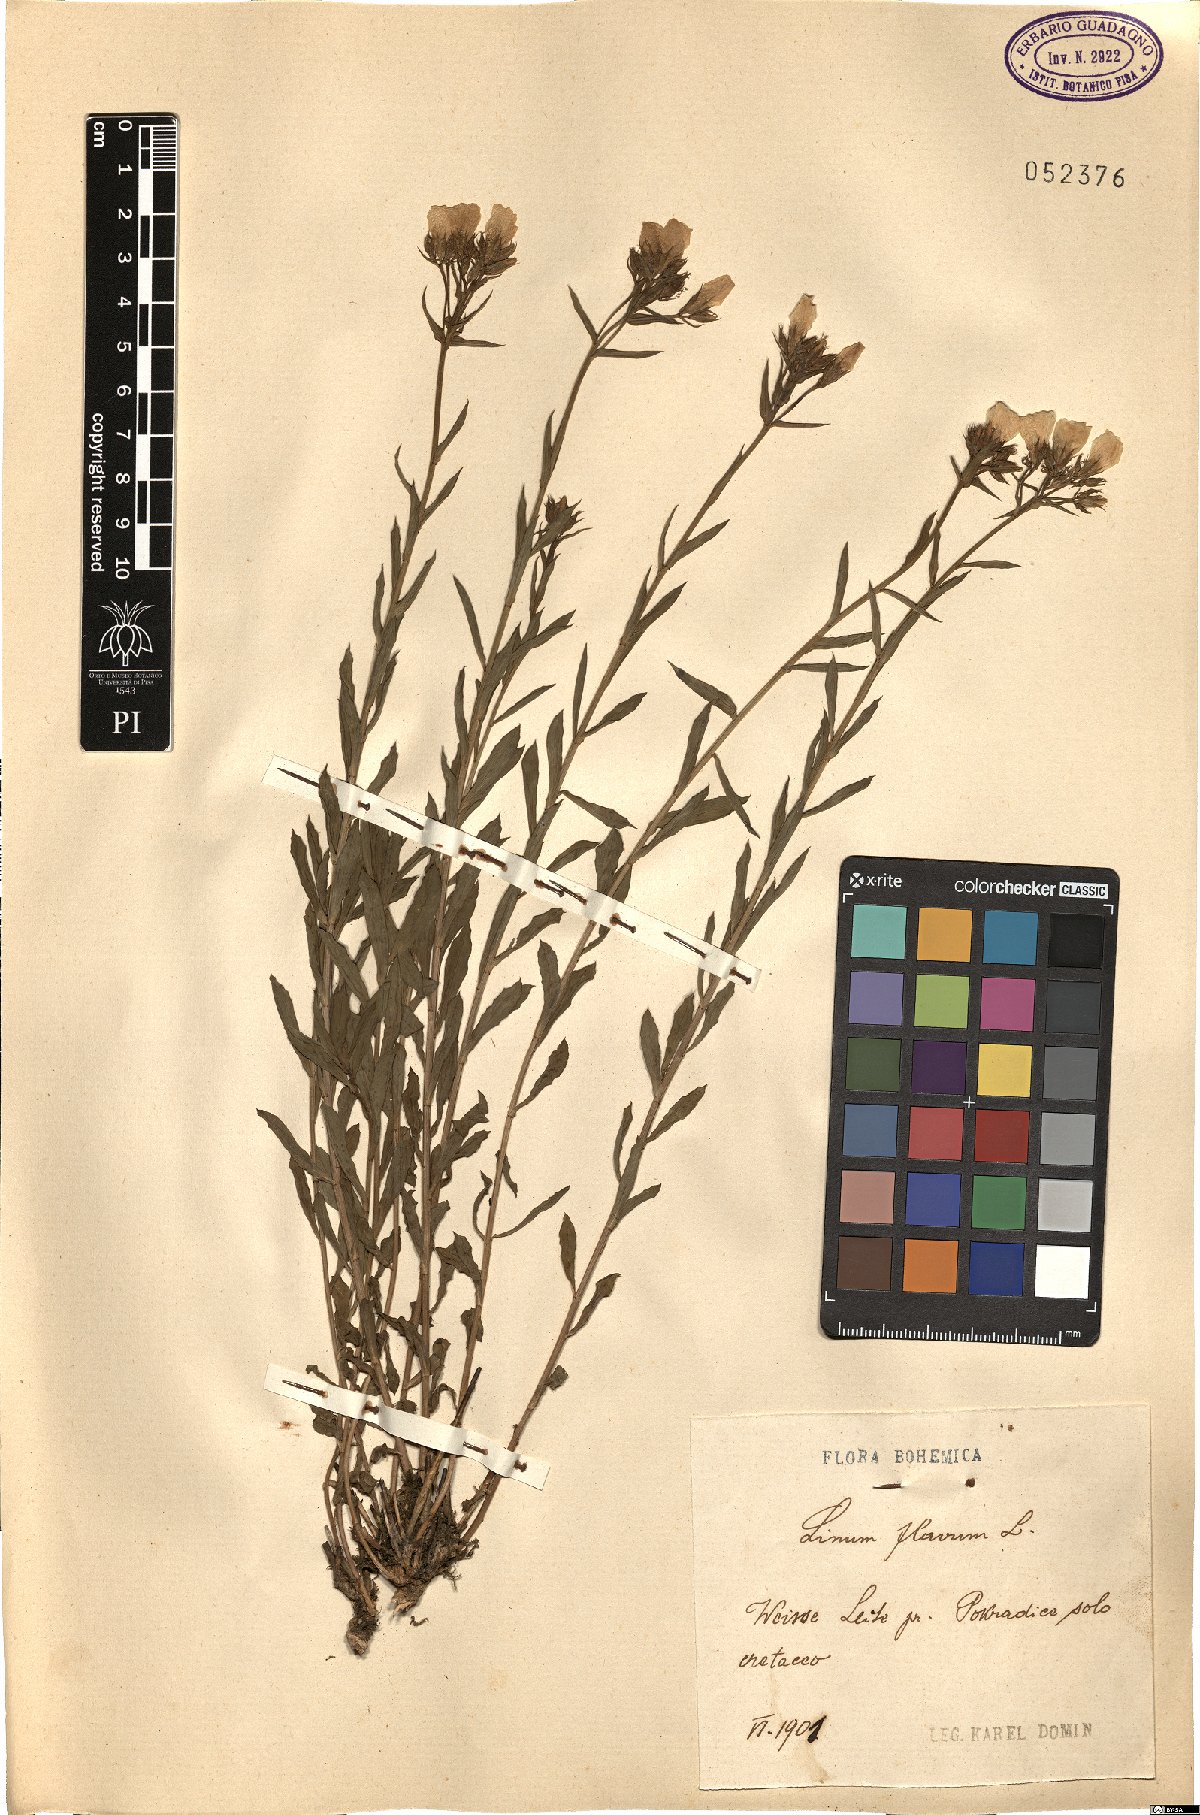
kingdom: Plantae
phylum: Tracheophyta
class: Magnoliopsida
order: Malpighiales
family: Linaceae
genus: Linum
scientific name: Linum flavum
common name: Yellow flax
